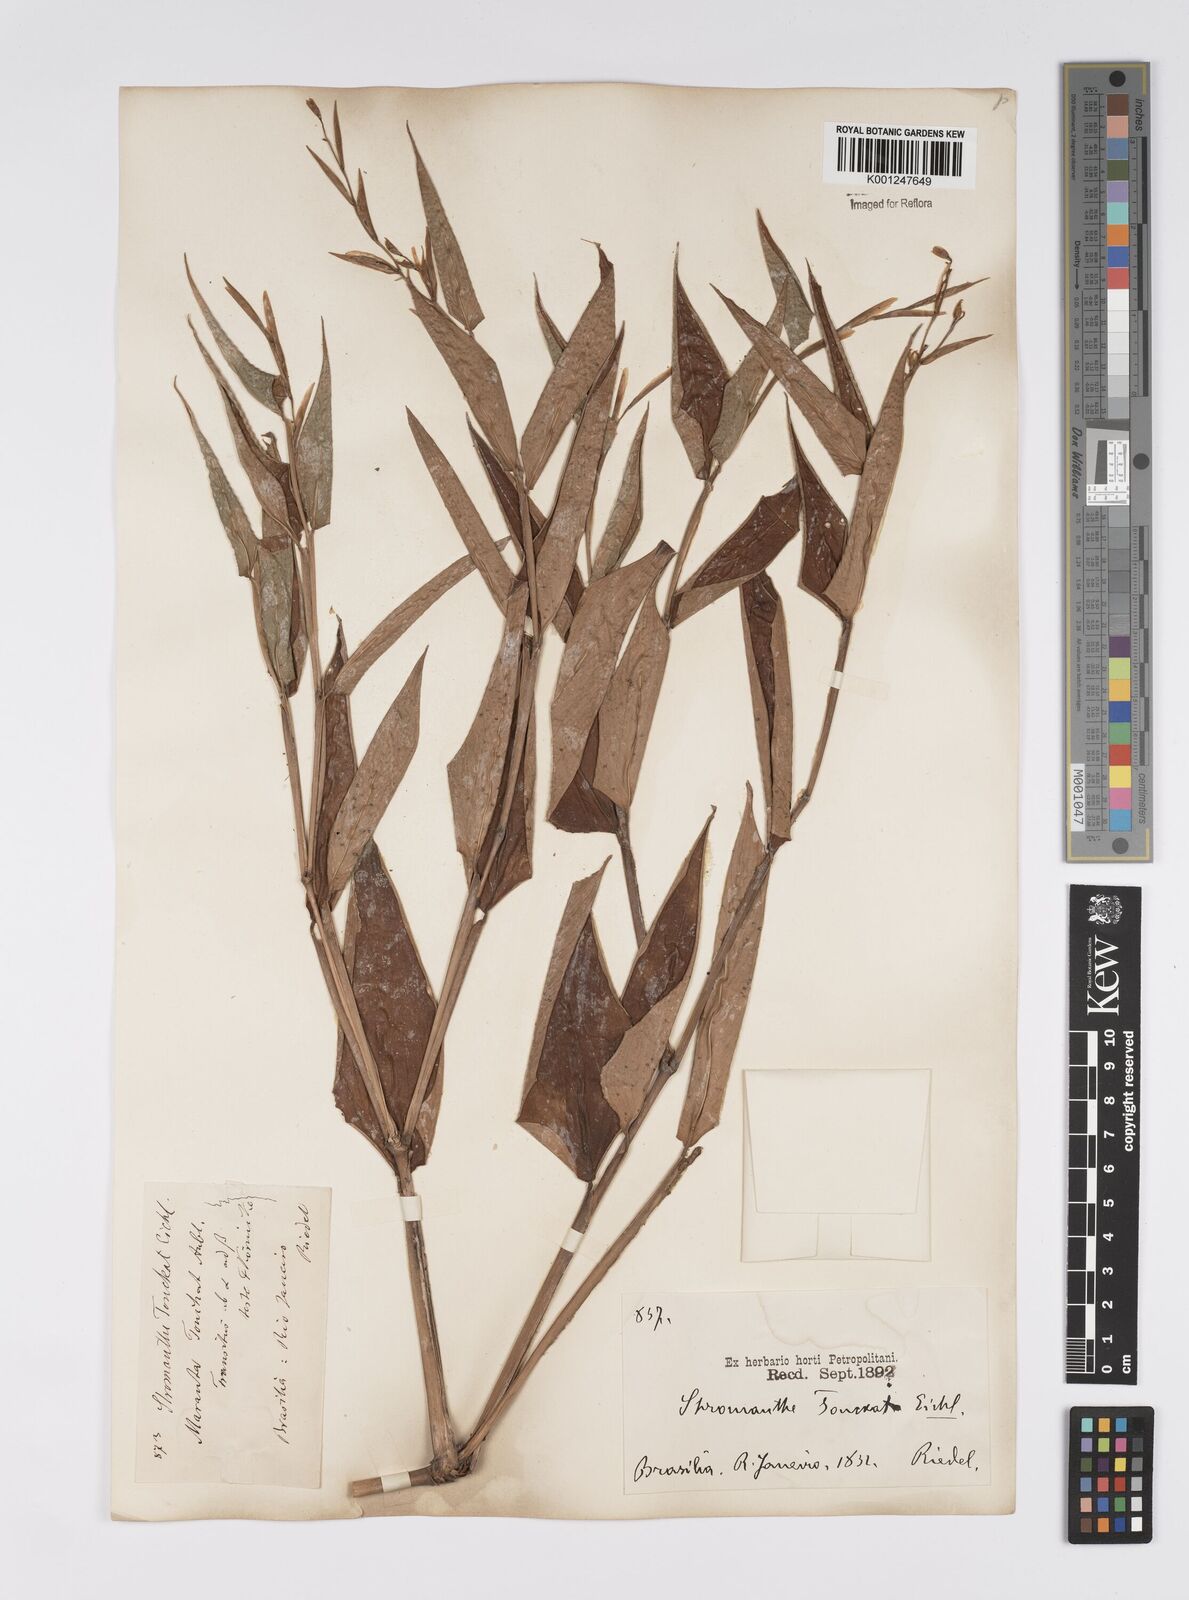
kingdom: Plantae
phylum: Tracheophyta
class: Liliopsida
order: Zingiberales
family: Marantaceae
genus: Stromanthe
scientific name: Stromanthe tonckat
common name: Stromanthe
